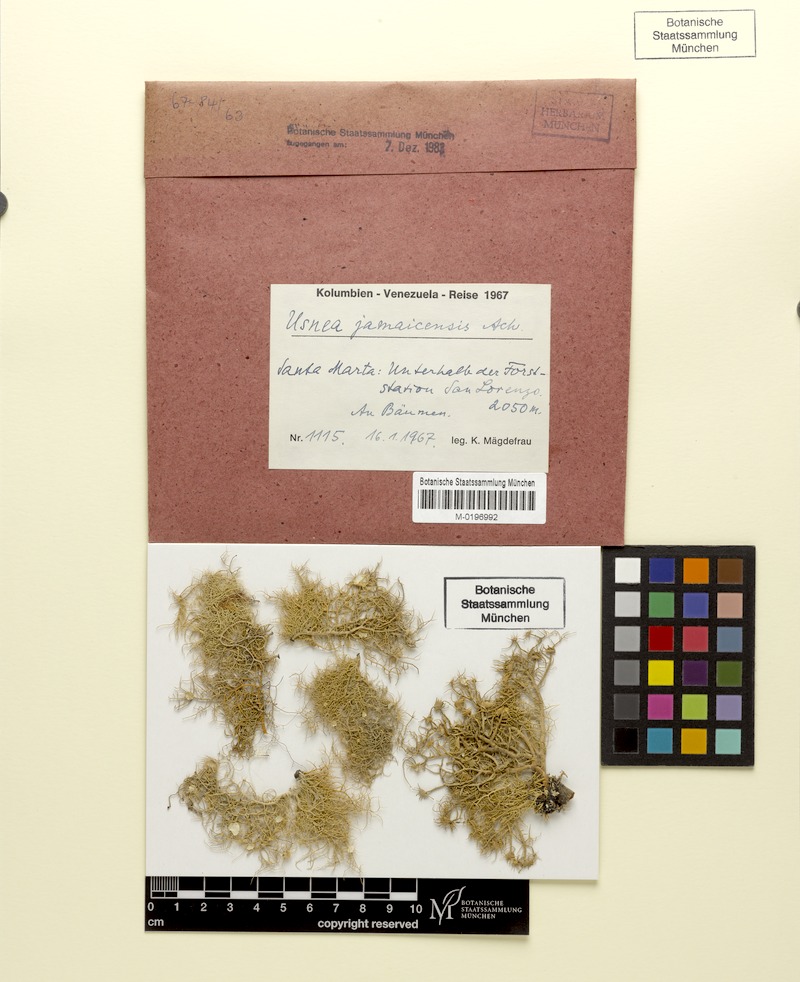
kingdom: Fungi
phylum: Ascomycota
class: Lecanoromycetes
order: Lecanorales
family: Parmeliaceae
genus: Usnea
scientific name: Usnea jamaicensis
